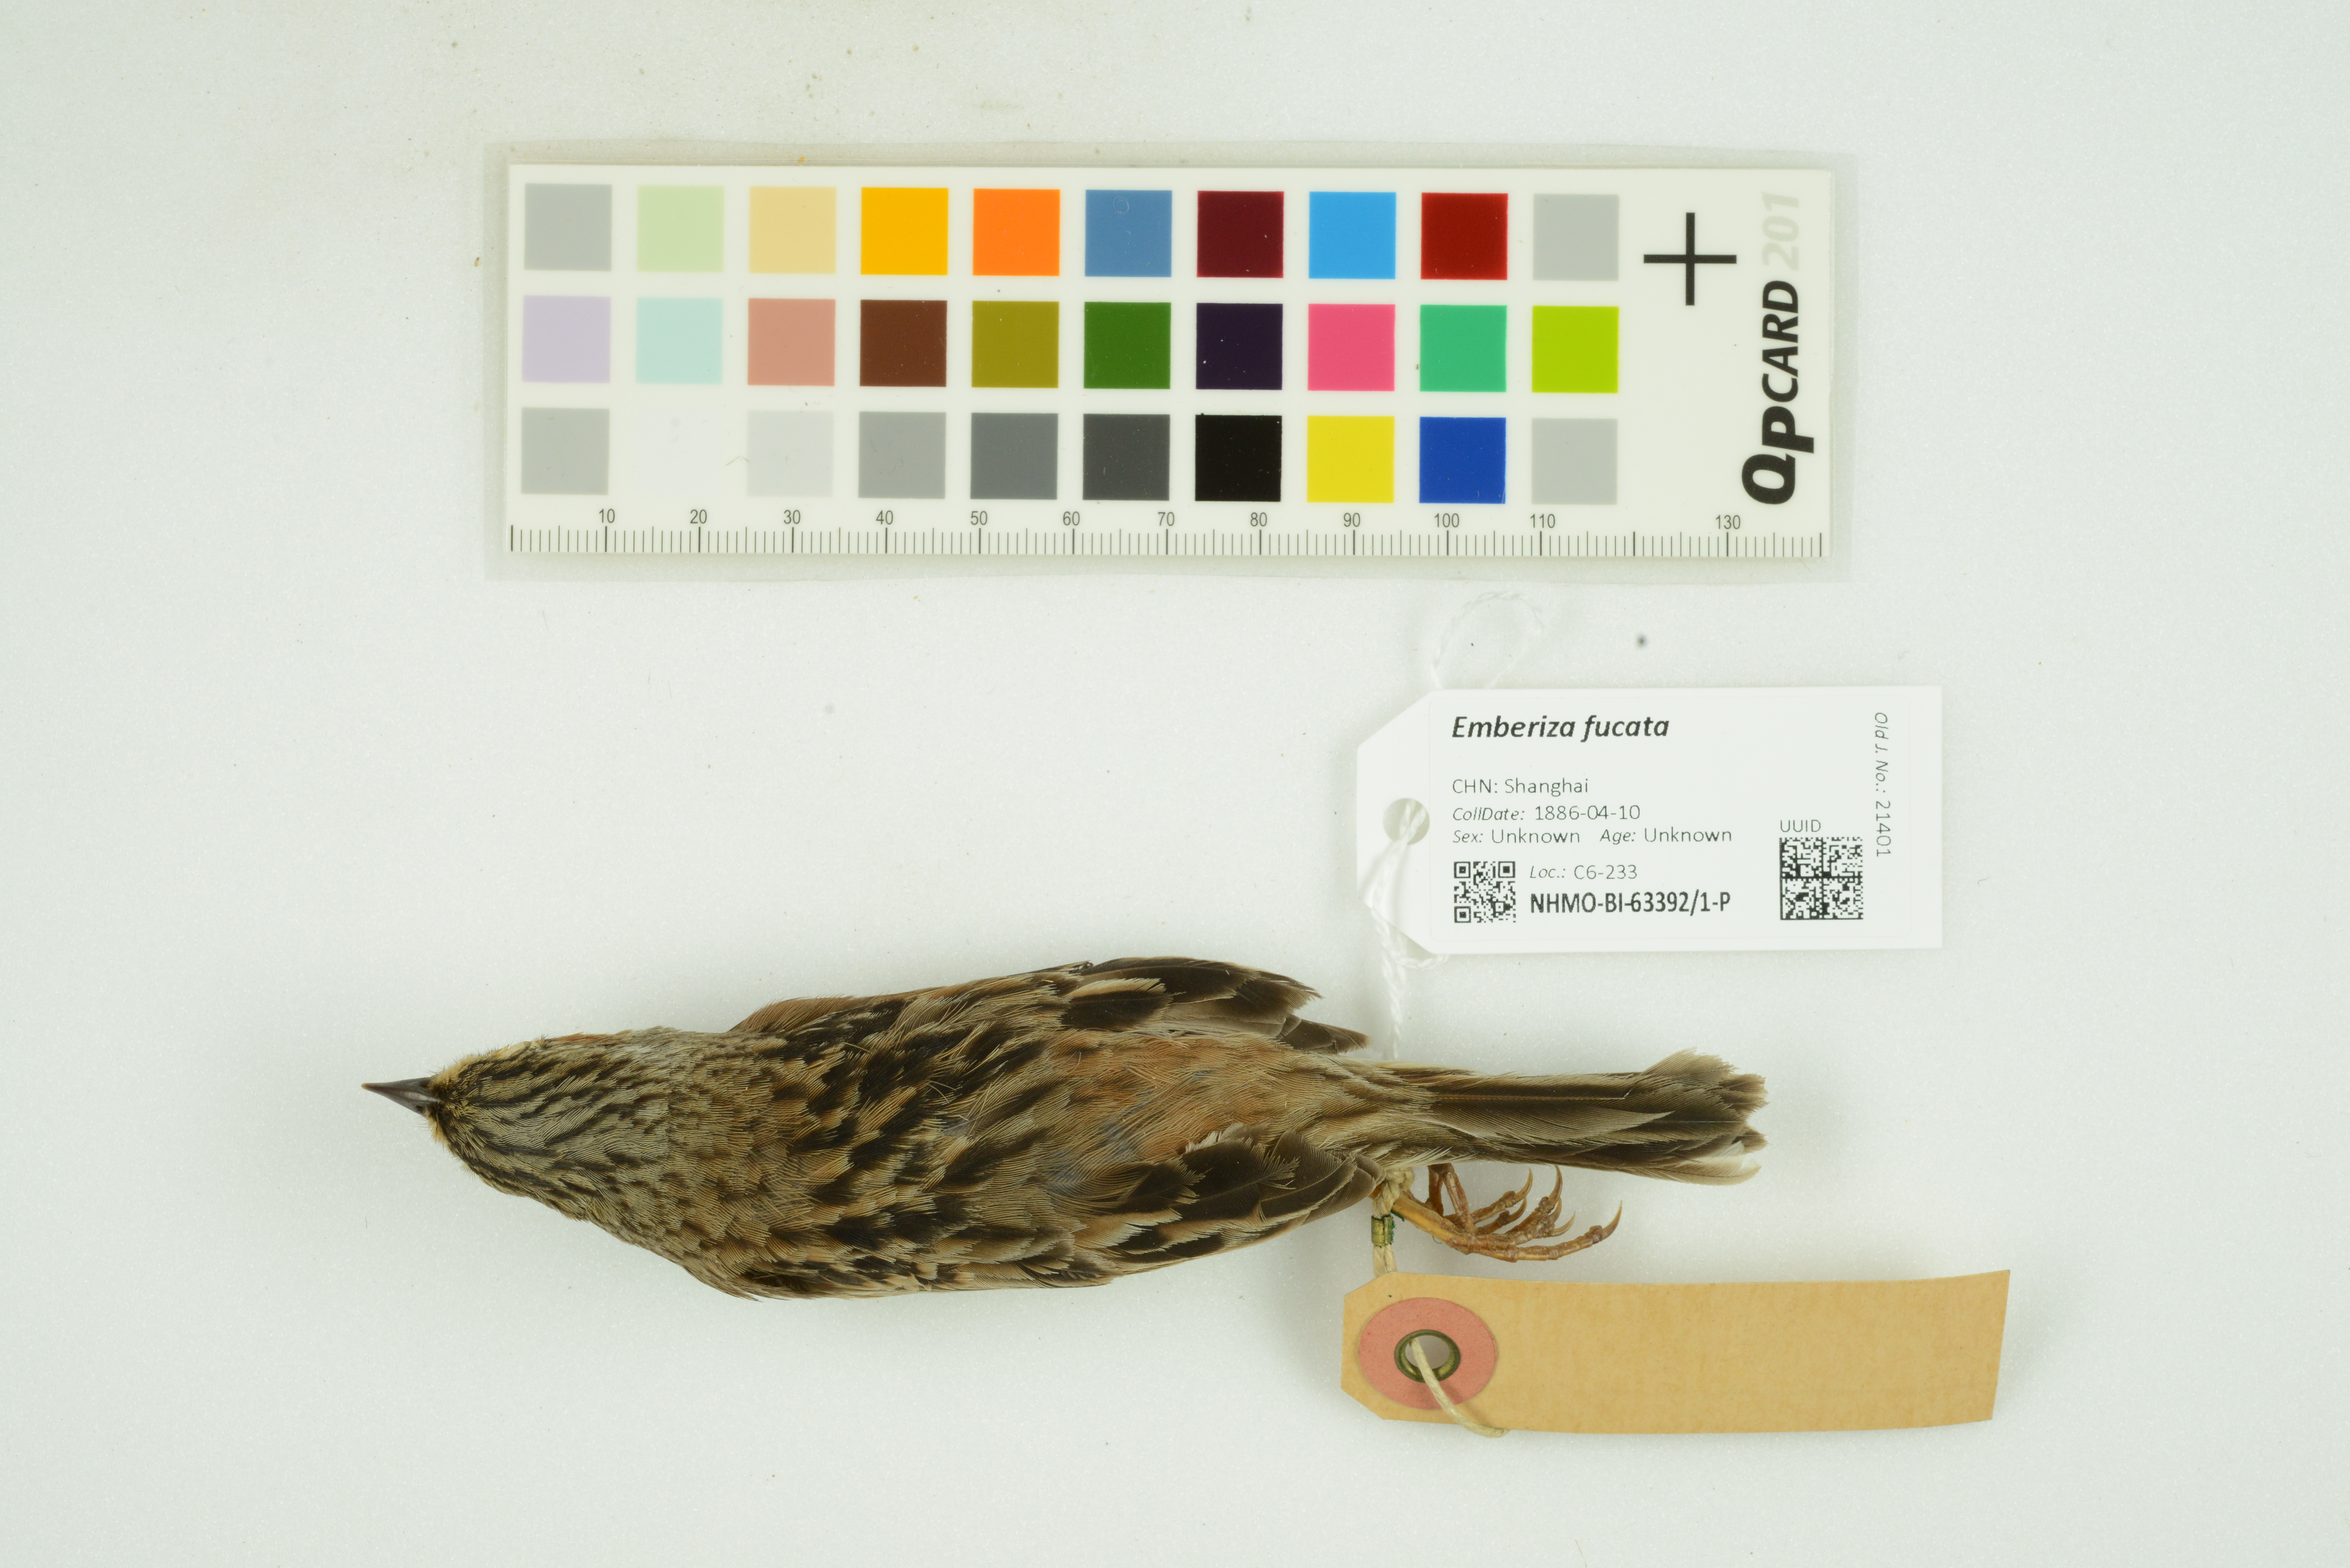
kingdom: Animalia
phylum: Chordata
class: Aves
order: Passeriformes
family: Emberizidae
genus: Emberiza
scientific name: Emberiza fucata
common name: Chestnut-eared bunting
